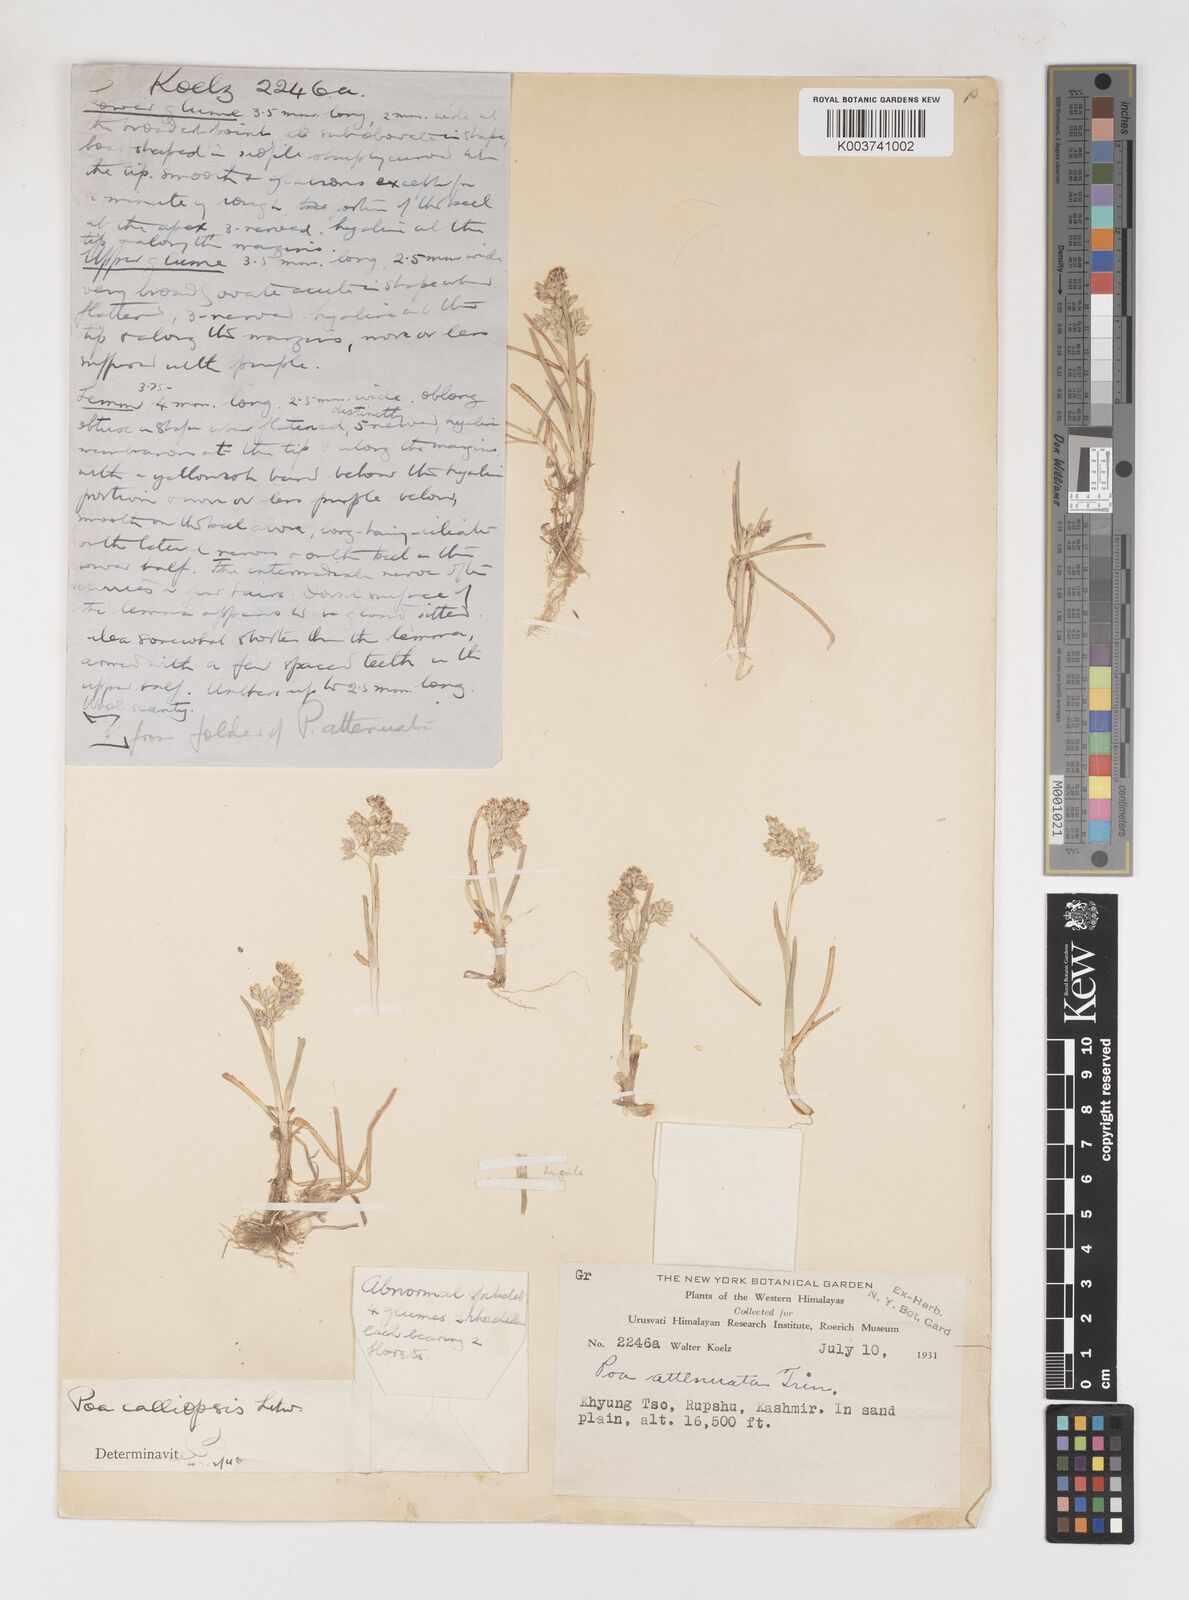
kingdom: Plantae
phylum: Tracheophyta
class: Liliopsida
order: Poales
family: Poaceae
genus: Poa
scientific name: Poa calliopsis
